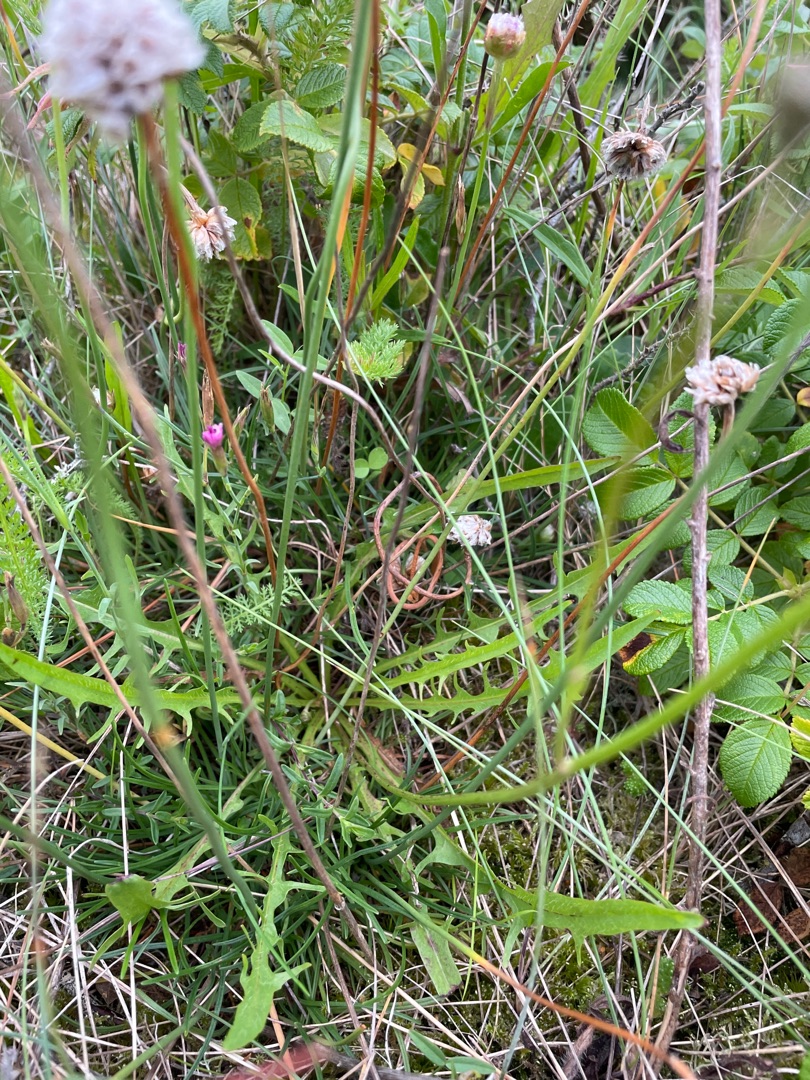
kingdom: Plantae
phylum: Tracheophyta
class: Magnoliopsida
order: Caryophyllales
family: Plumbaginaceae
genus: Armeria
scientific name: Armeria maritima
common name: Engelskgræs
